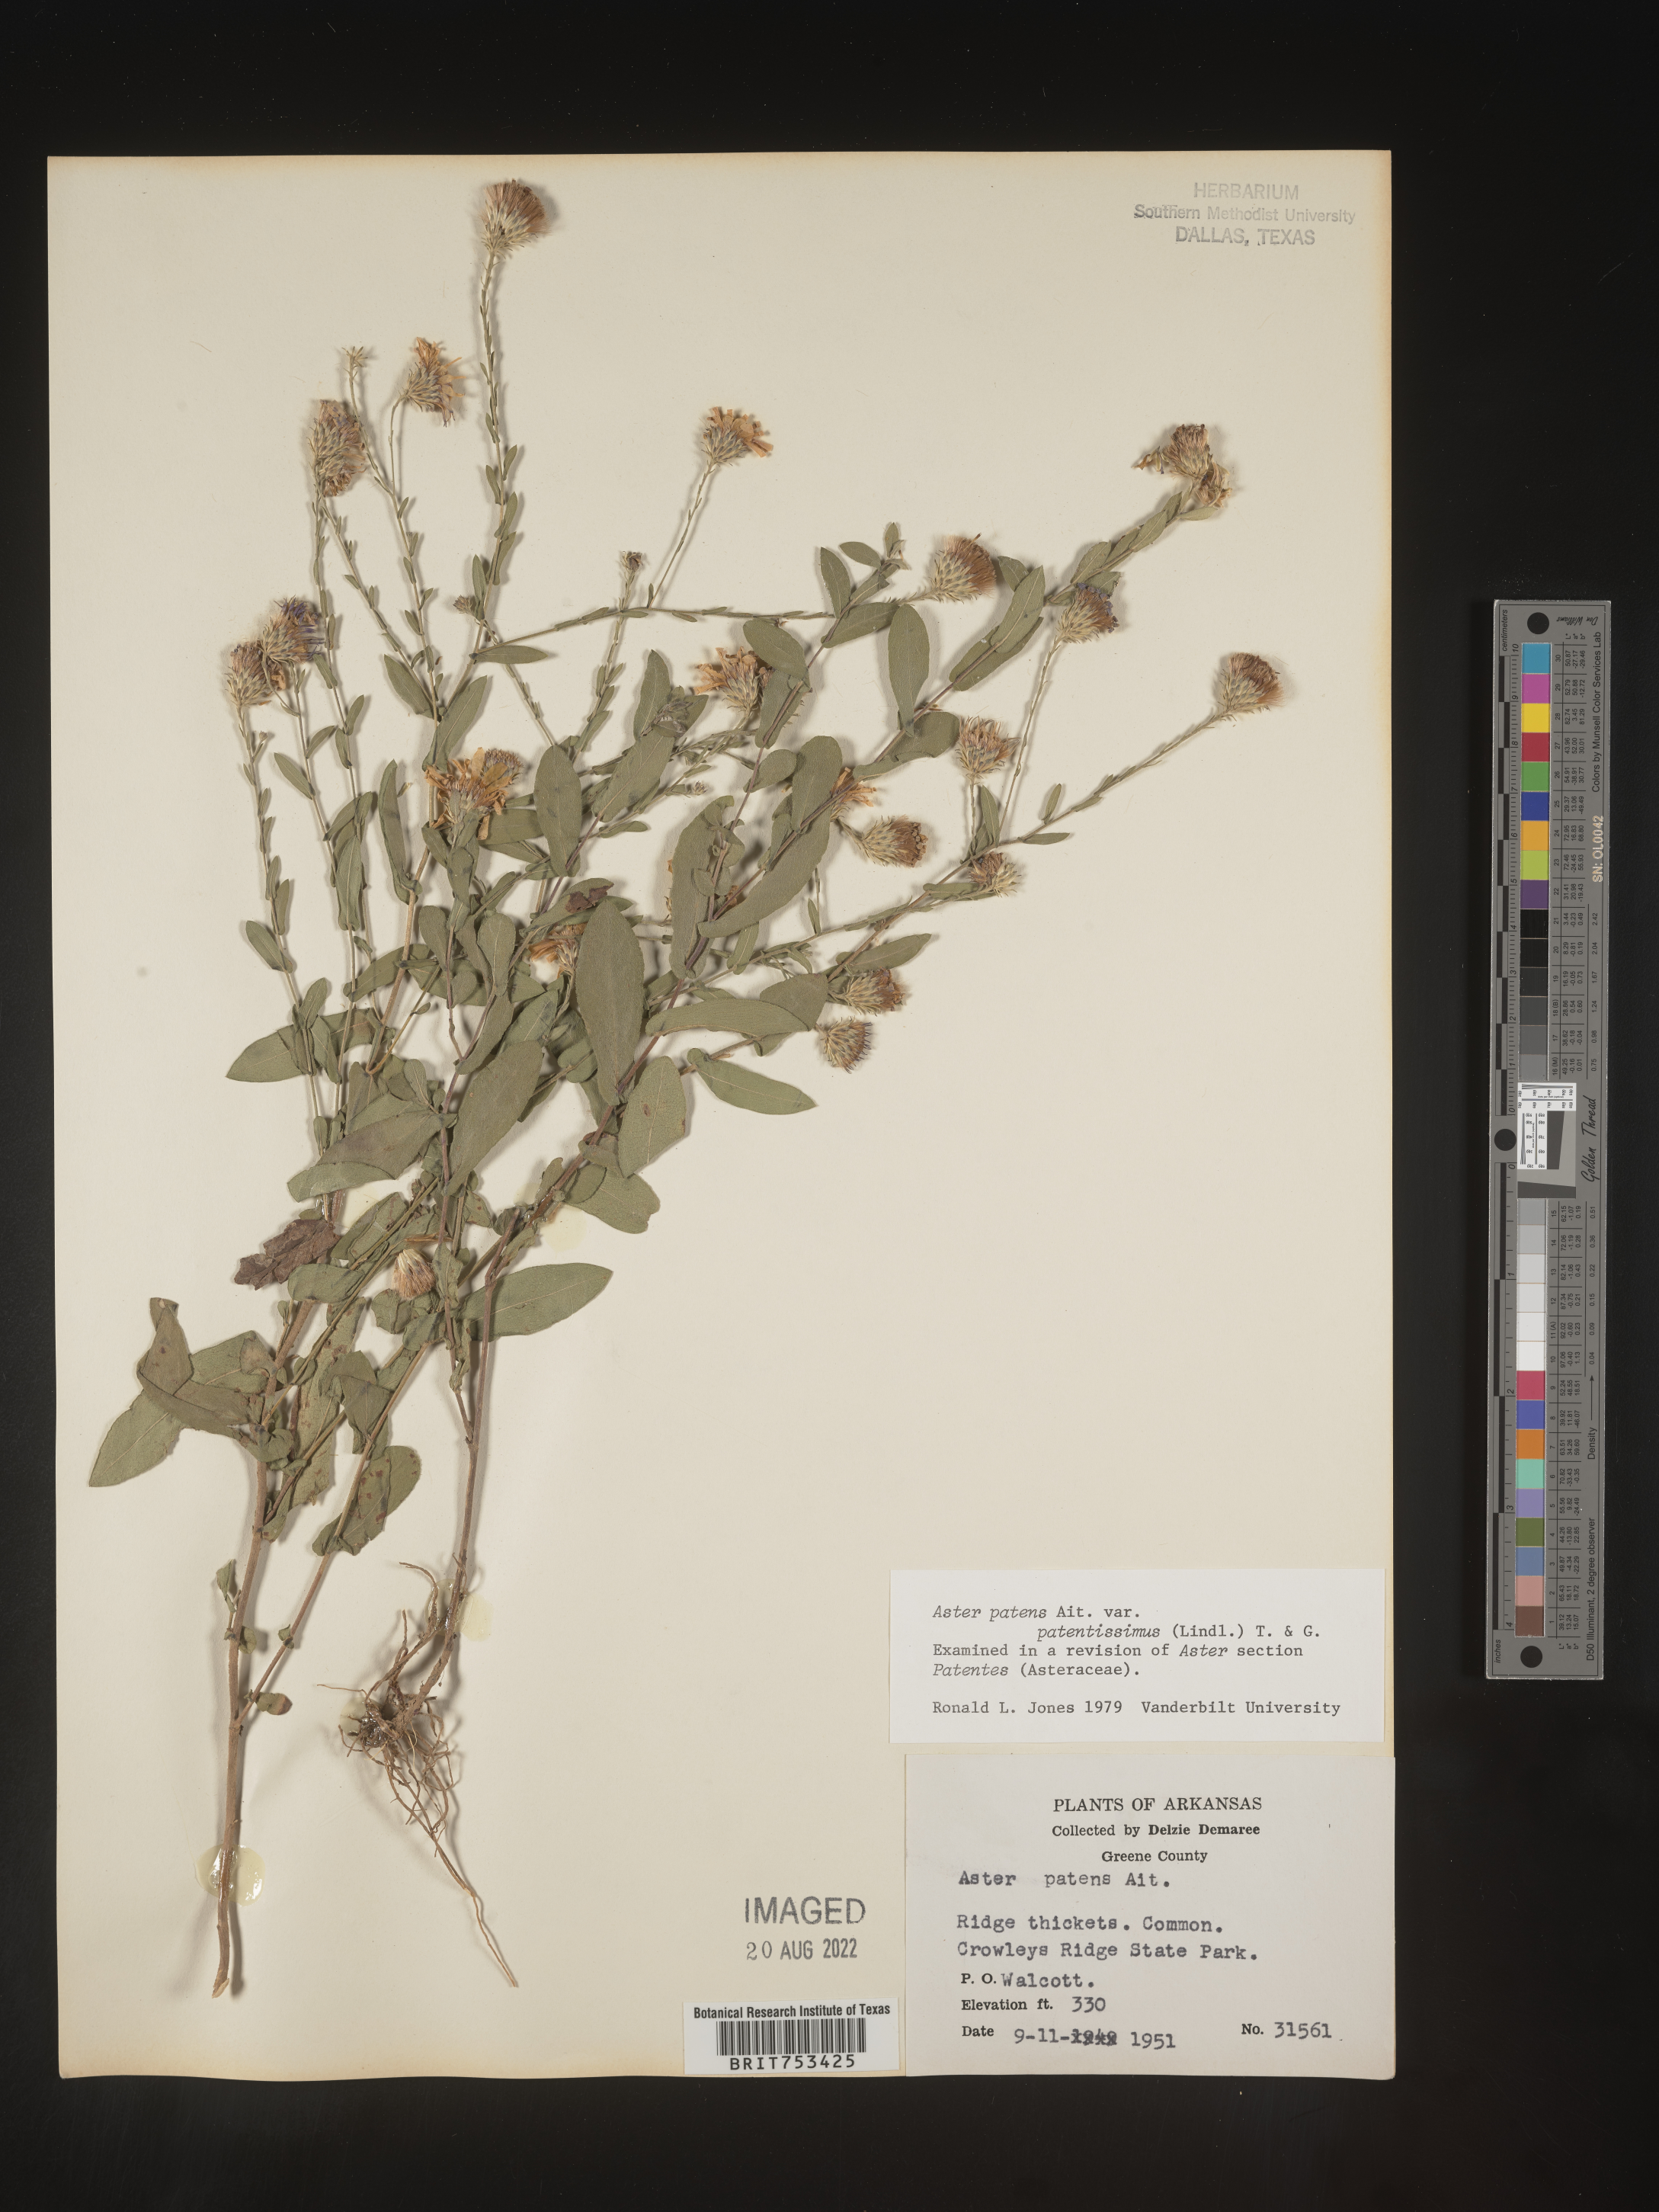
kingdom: Plantae
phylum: Tracheophyta
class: Magnoliopsida
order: Asterales
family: Asteraceae
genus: Symphyotrichum
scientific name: Symphyotrichum patens
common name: Late purple aster
